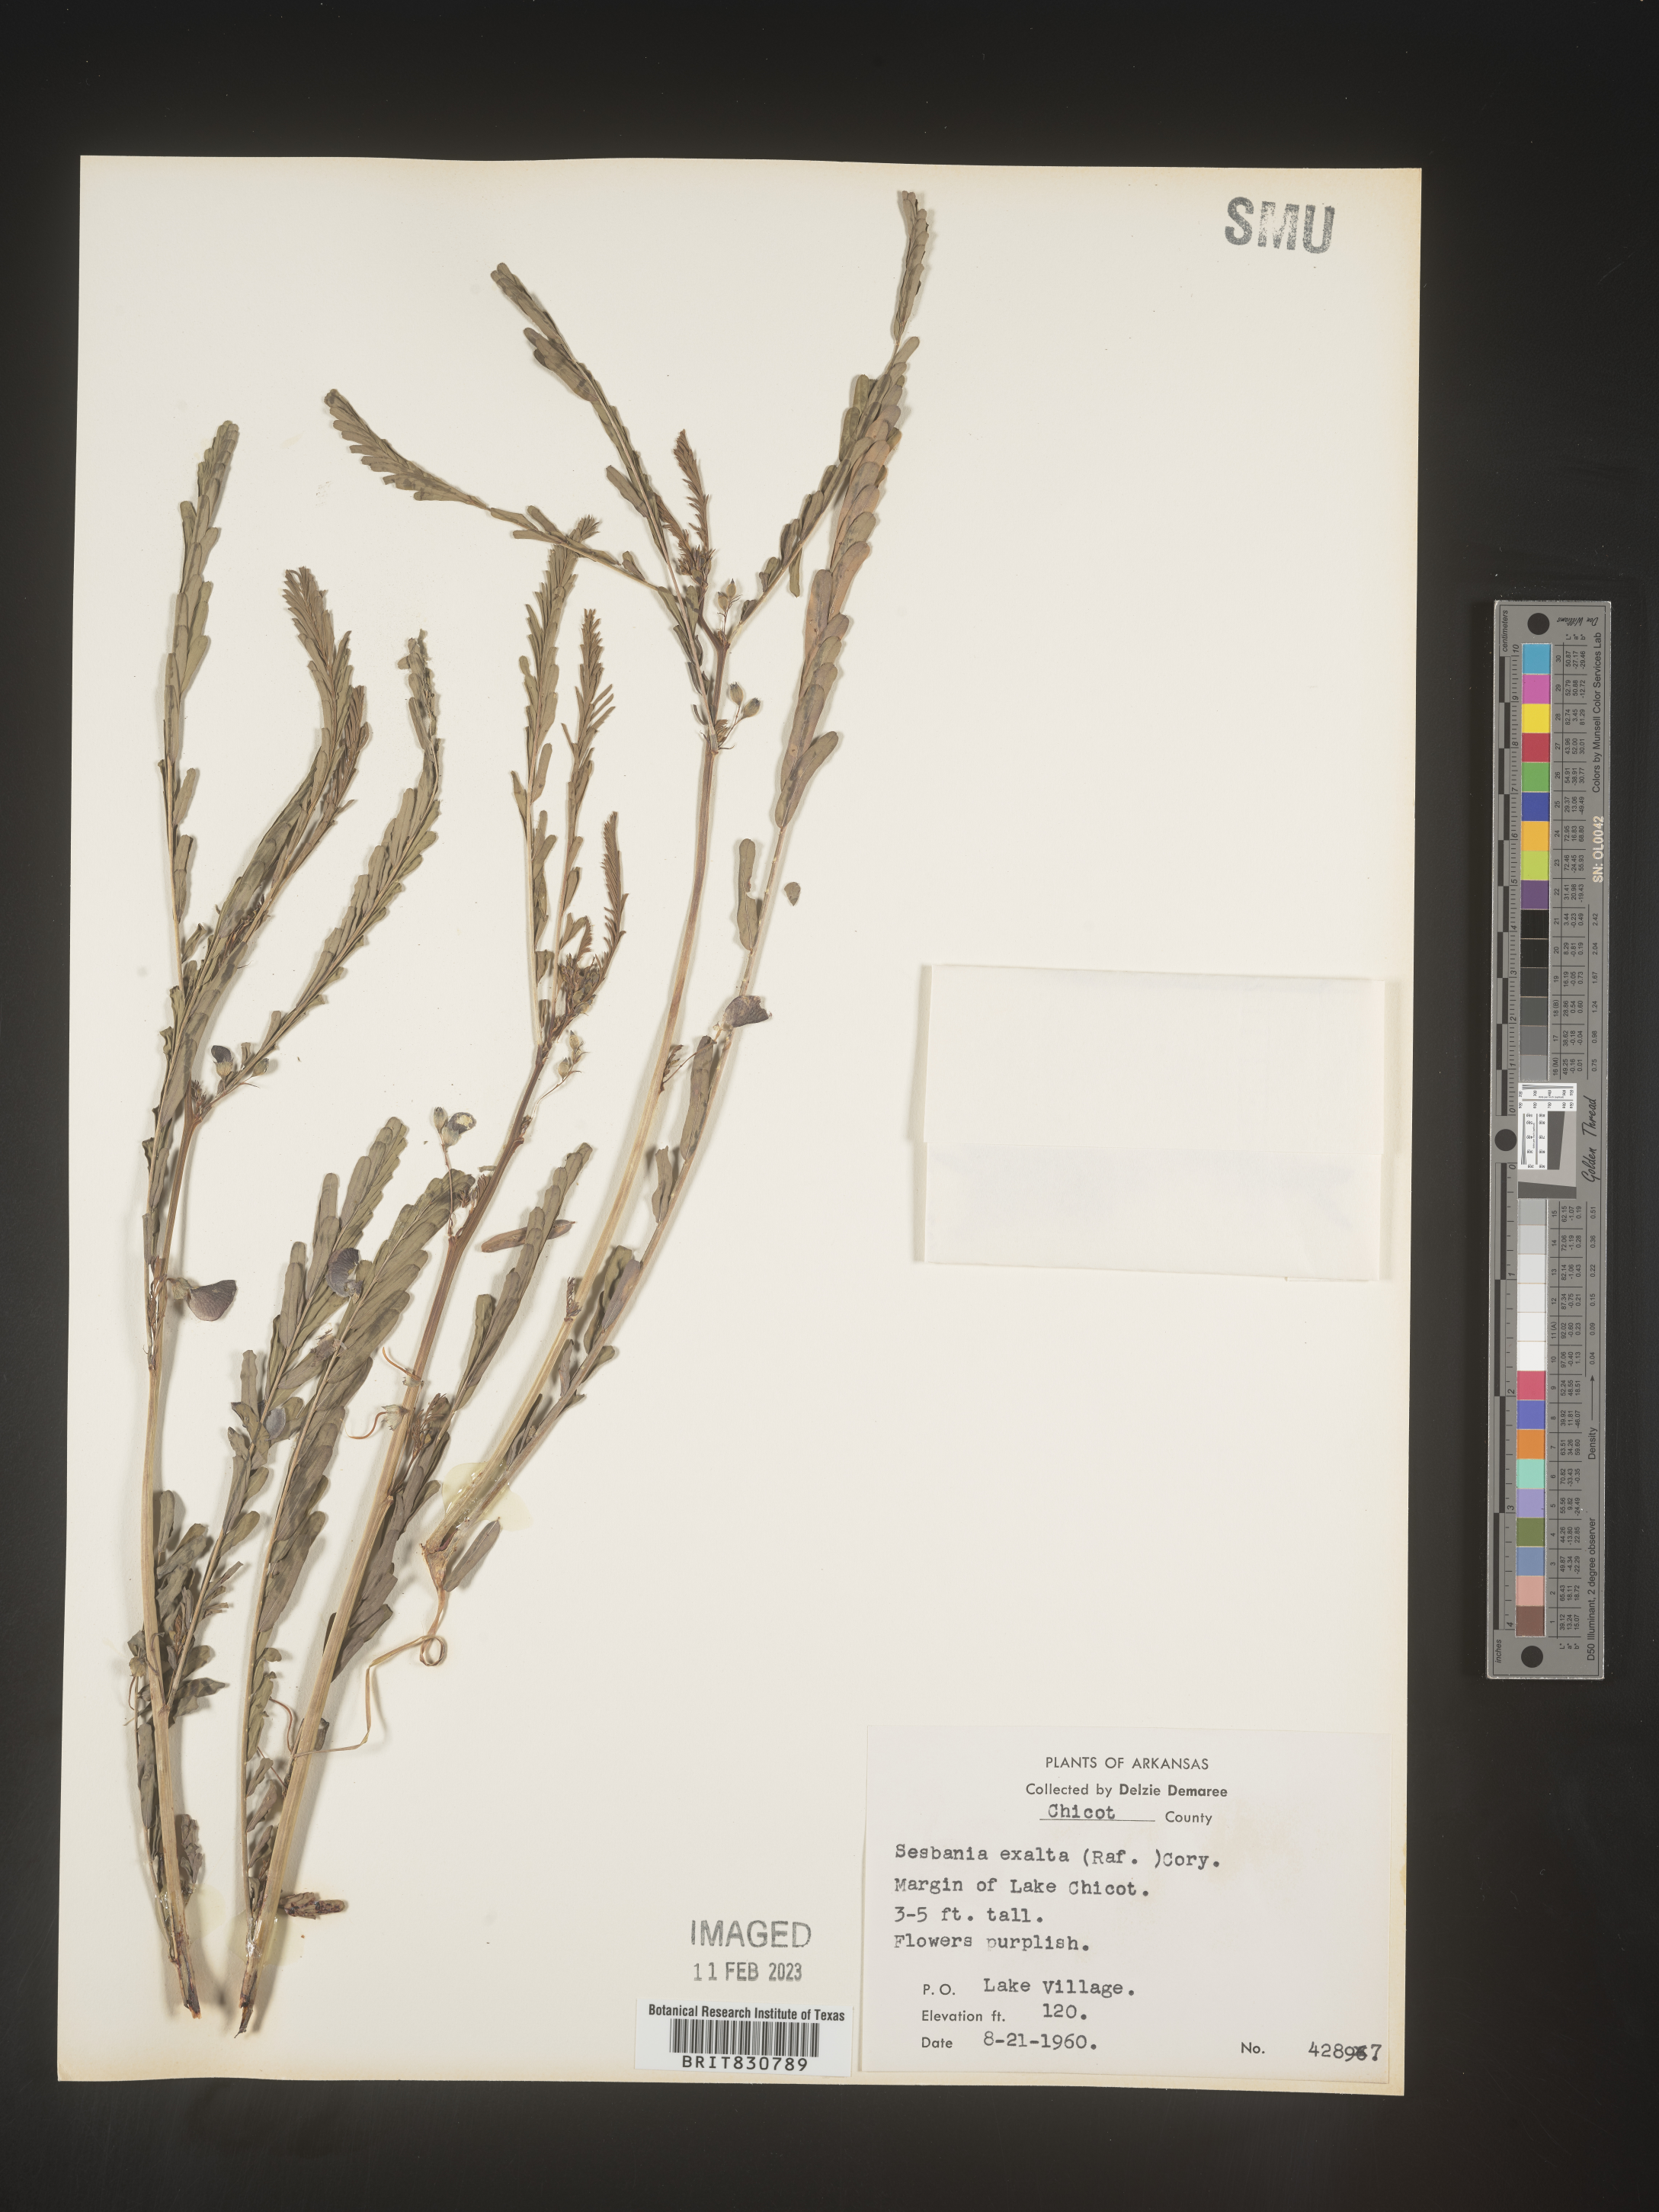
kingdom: Plantae
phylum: Tracheophyta
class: Magnoliopsida
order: Fabales
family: Fabaceae
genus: Sesbania
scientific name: Sesbania vesicaria
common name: Bagpod
